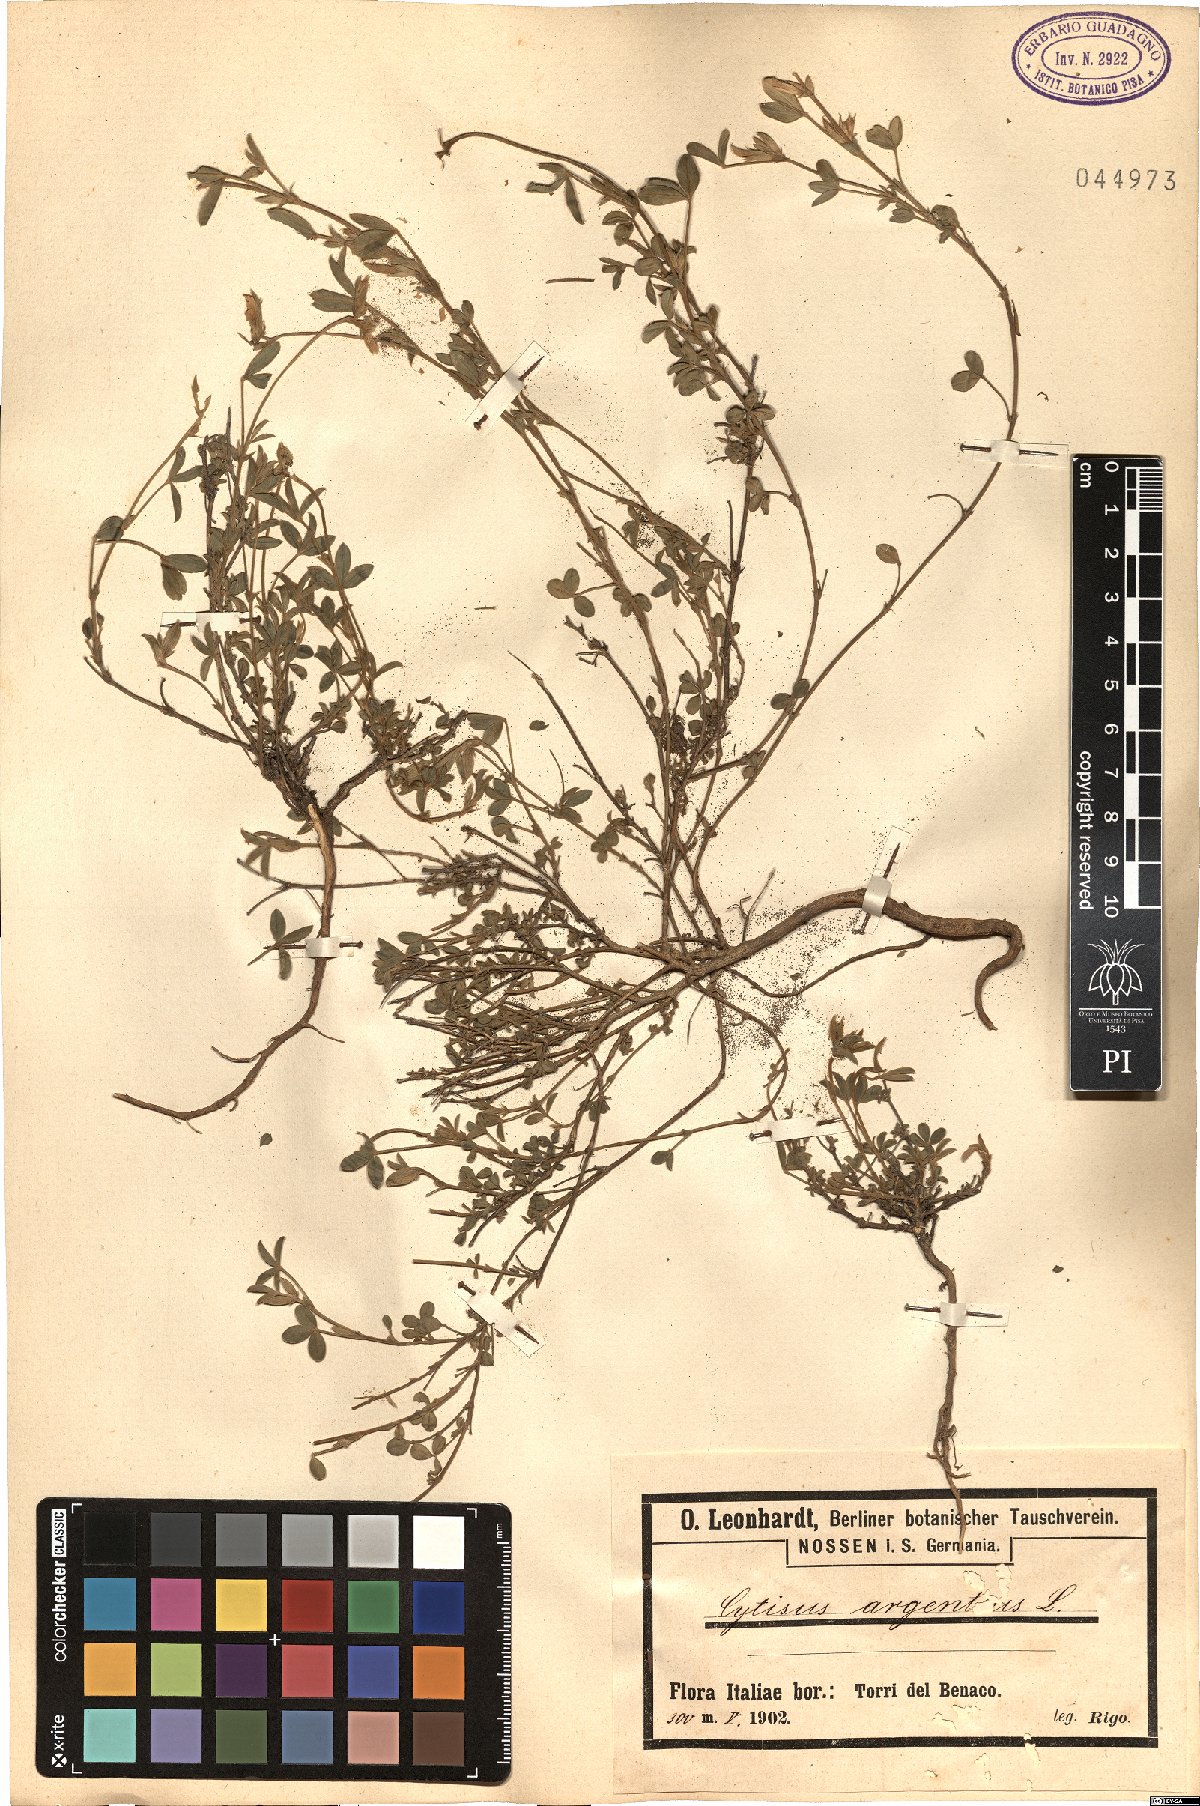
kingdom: Plantae
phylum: Tracheophyta
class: Magnoliopsida
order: Fabales
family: Fabaceae
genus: Cytisophyllum
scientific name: Cytisophyllum Cytisus argenteus
